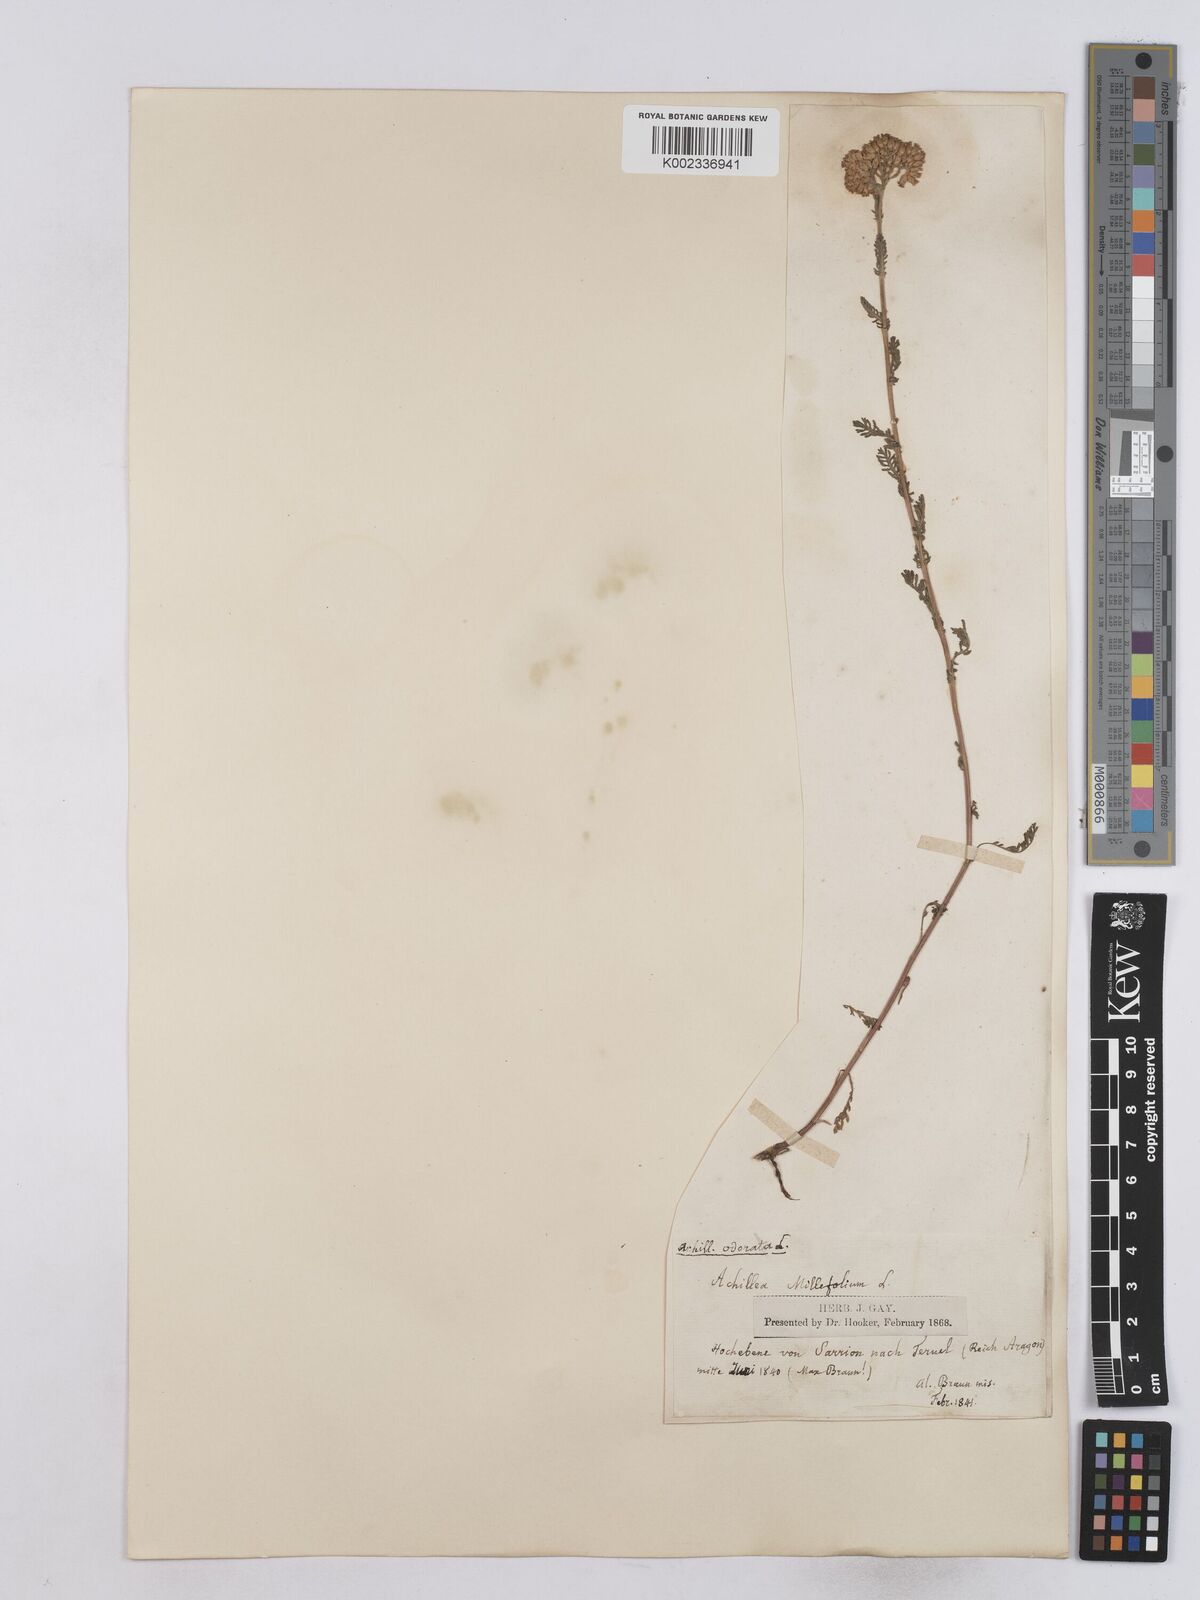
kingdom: Plantae
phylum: Tracheophyta
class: Magnoliopsida
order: Asterales
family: Asteraceae
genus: Achillea
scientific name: Achillea odorata
